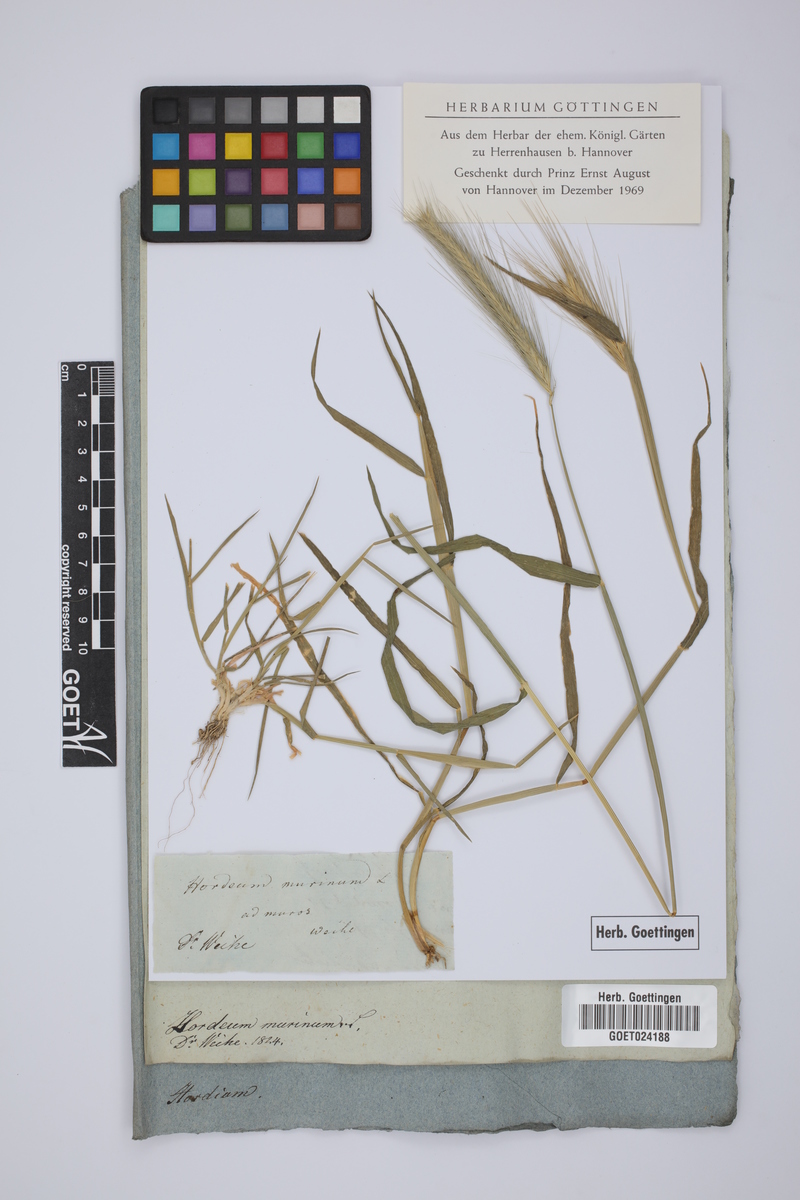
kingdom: Plantae
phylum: Tracheophyta
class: Liliopsida
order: Poales
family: Poaceae
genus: Hordeum
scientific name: Hordeum murinum
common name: Wall barley
